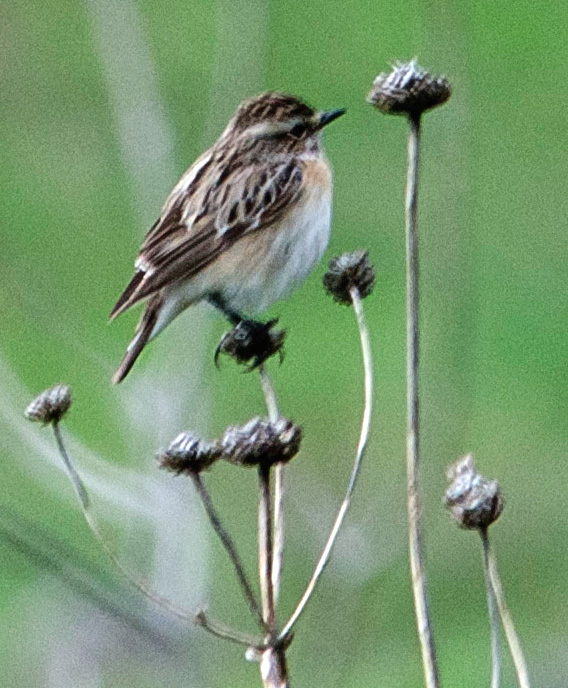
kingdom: Animalia
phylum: Chordata
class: Aves
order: Passeriformes
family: Muscicapidae
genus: Saxicola
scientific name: Saxicola rubetra
